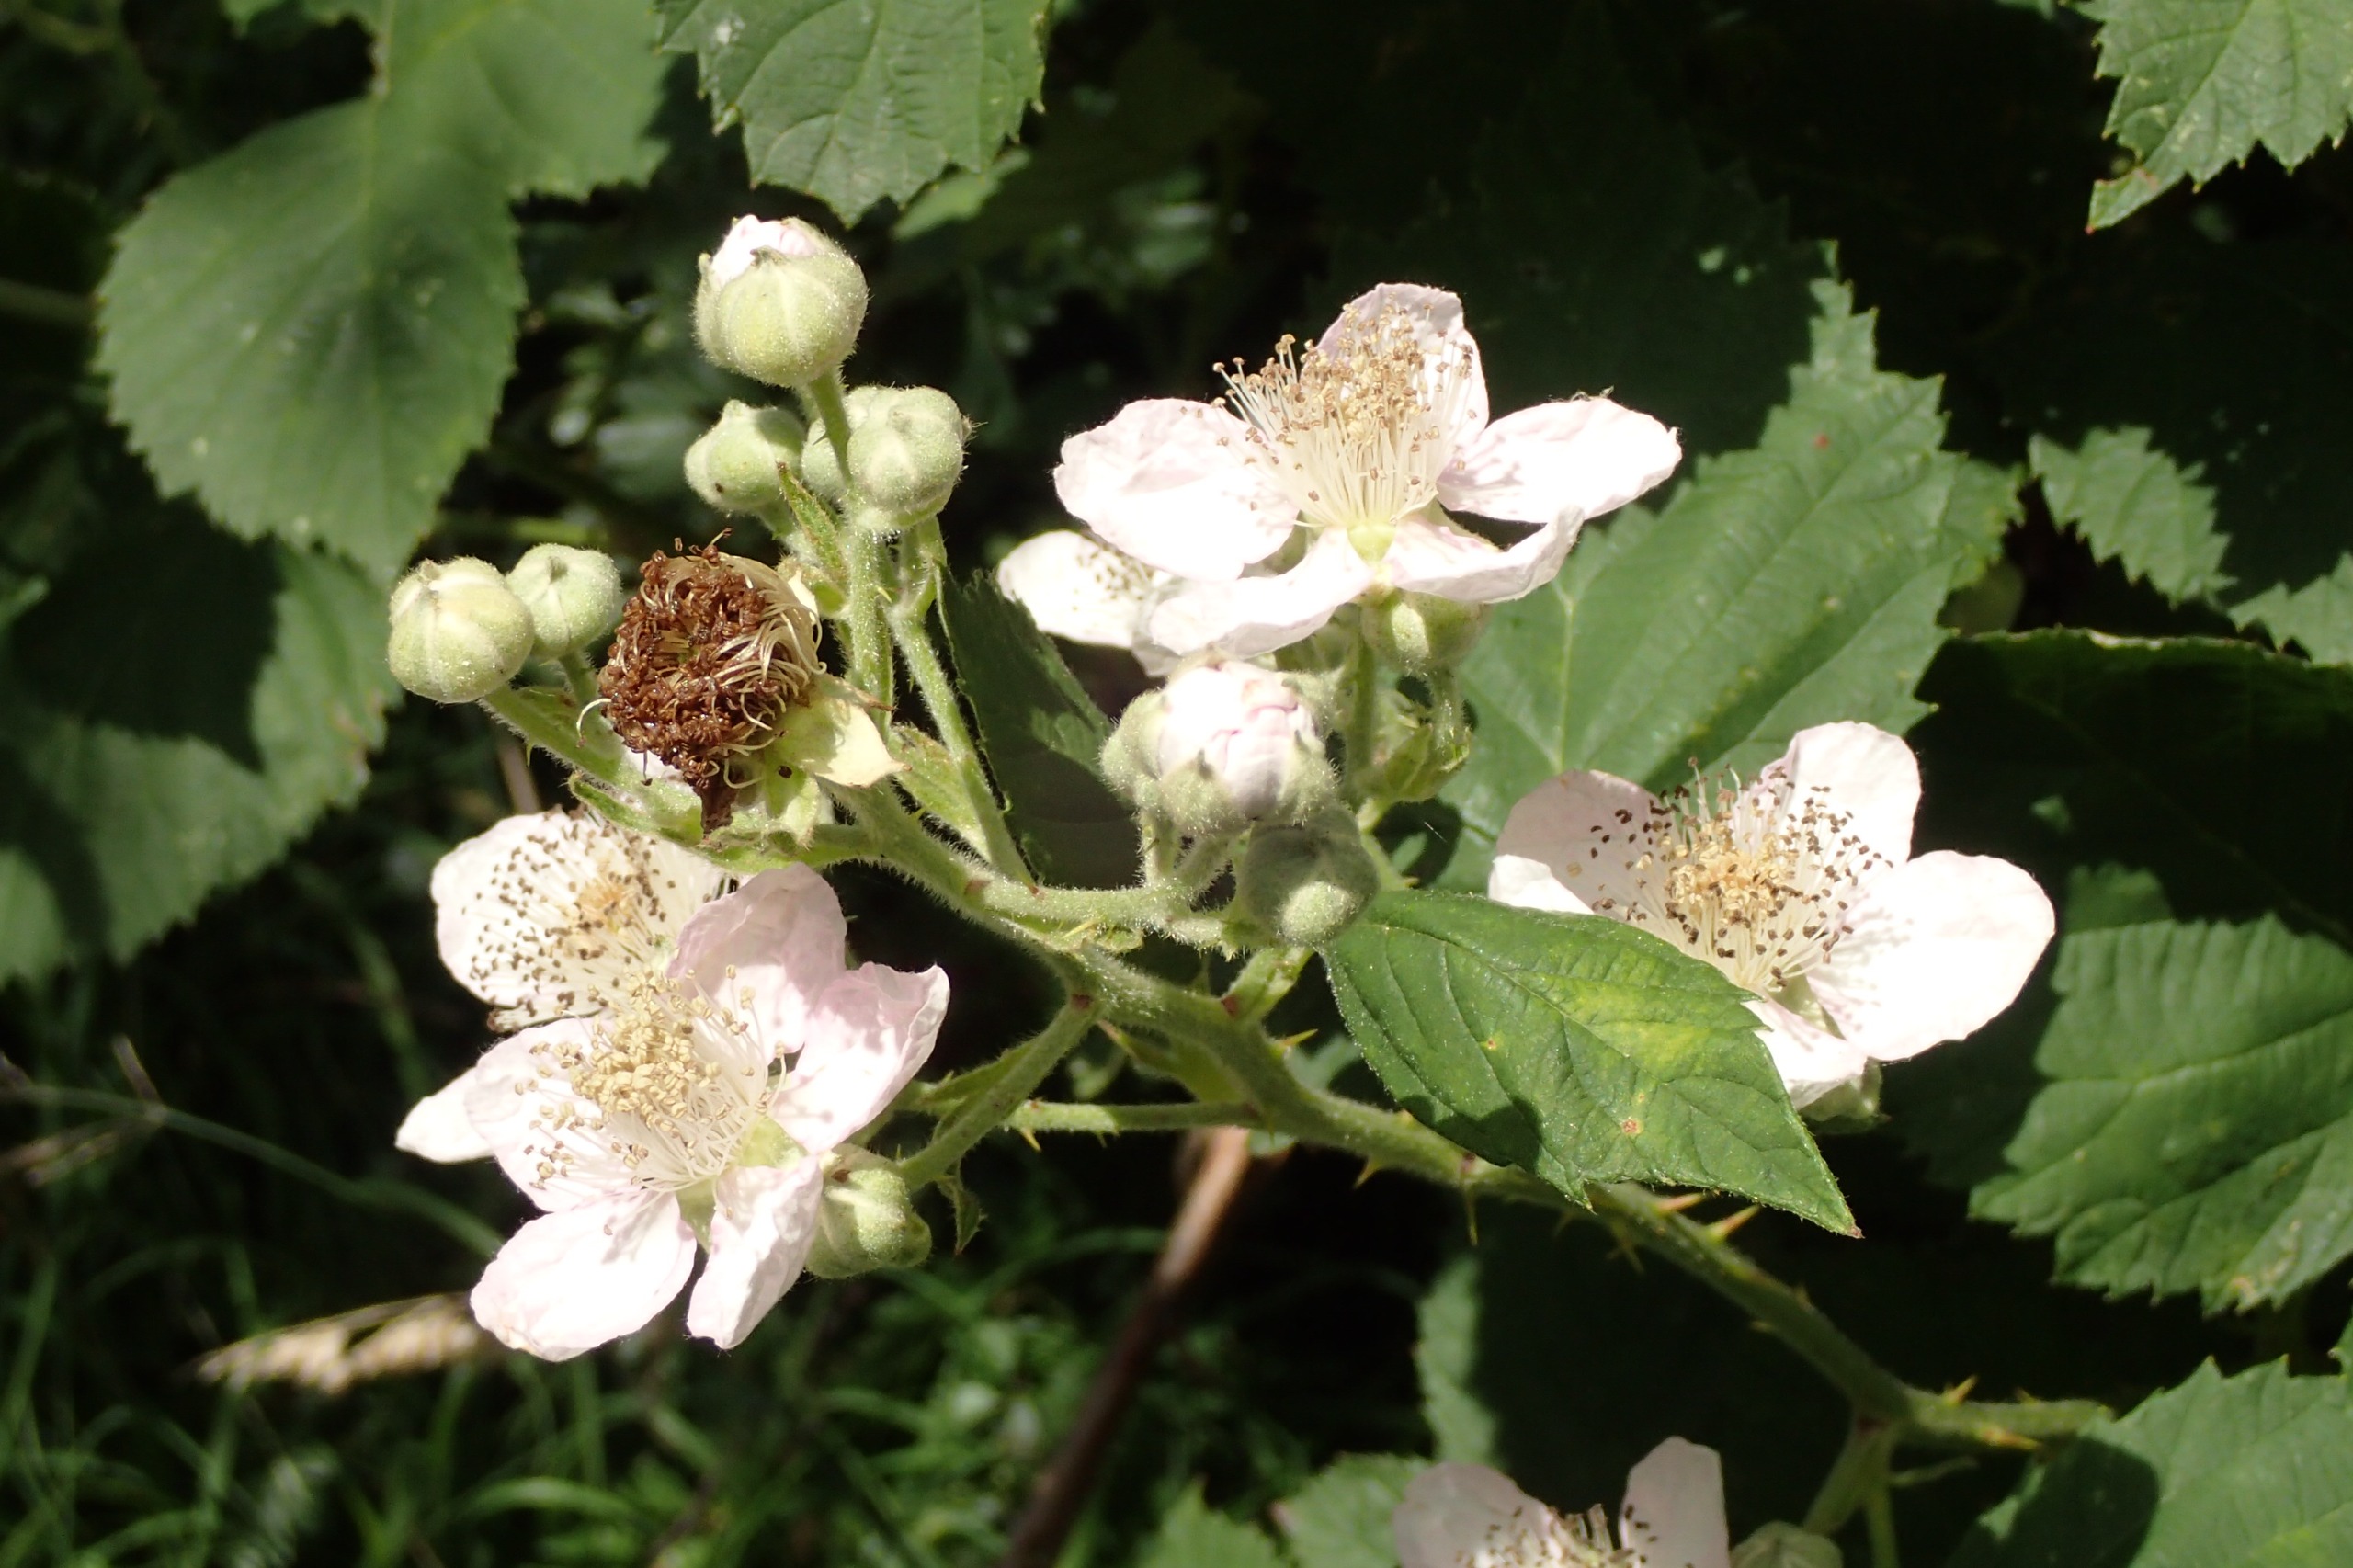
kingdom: Plantae
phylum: Tracheophyta
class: Magnoliopsida
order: Rosales
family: Rosaceae
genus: Rubus
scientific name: Rubus armeniacus
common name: Armensk brombær
